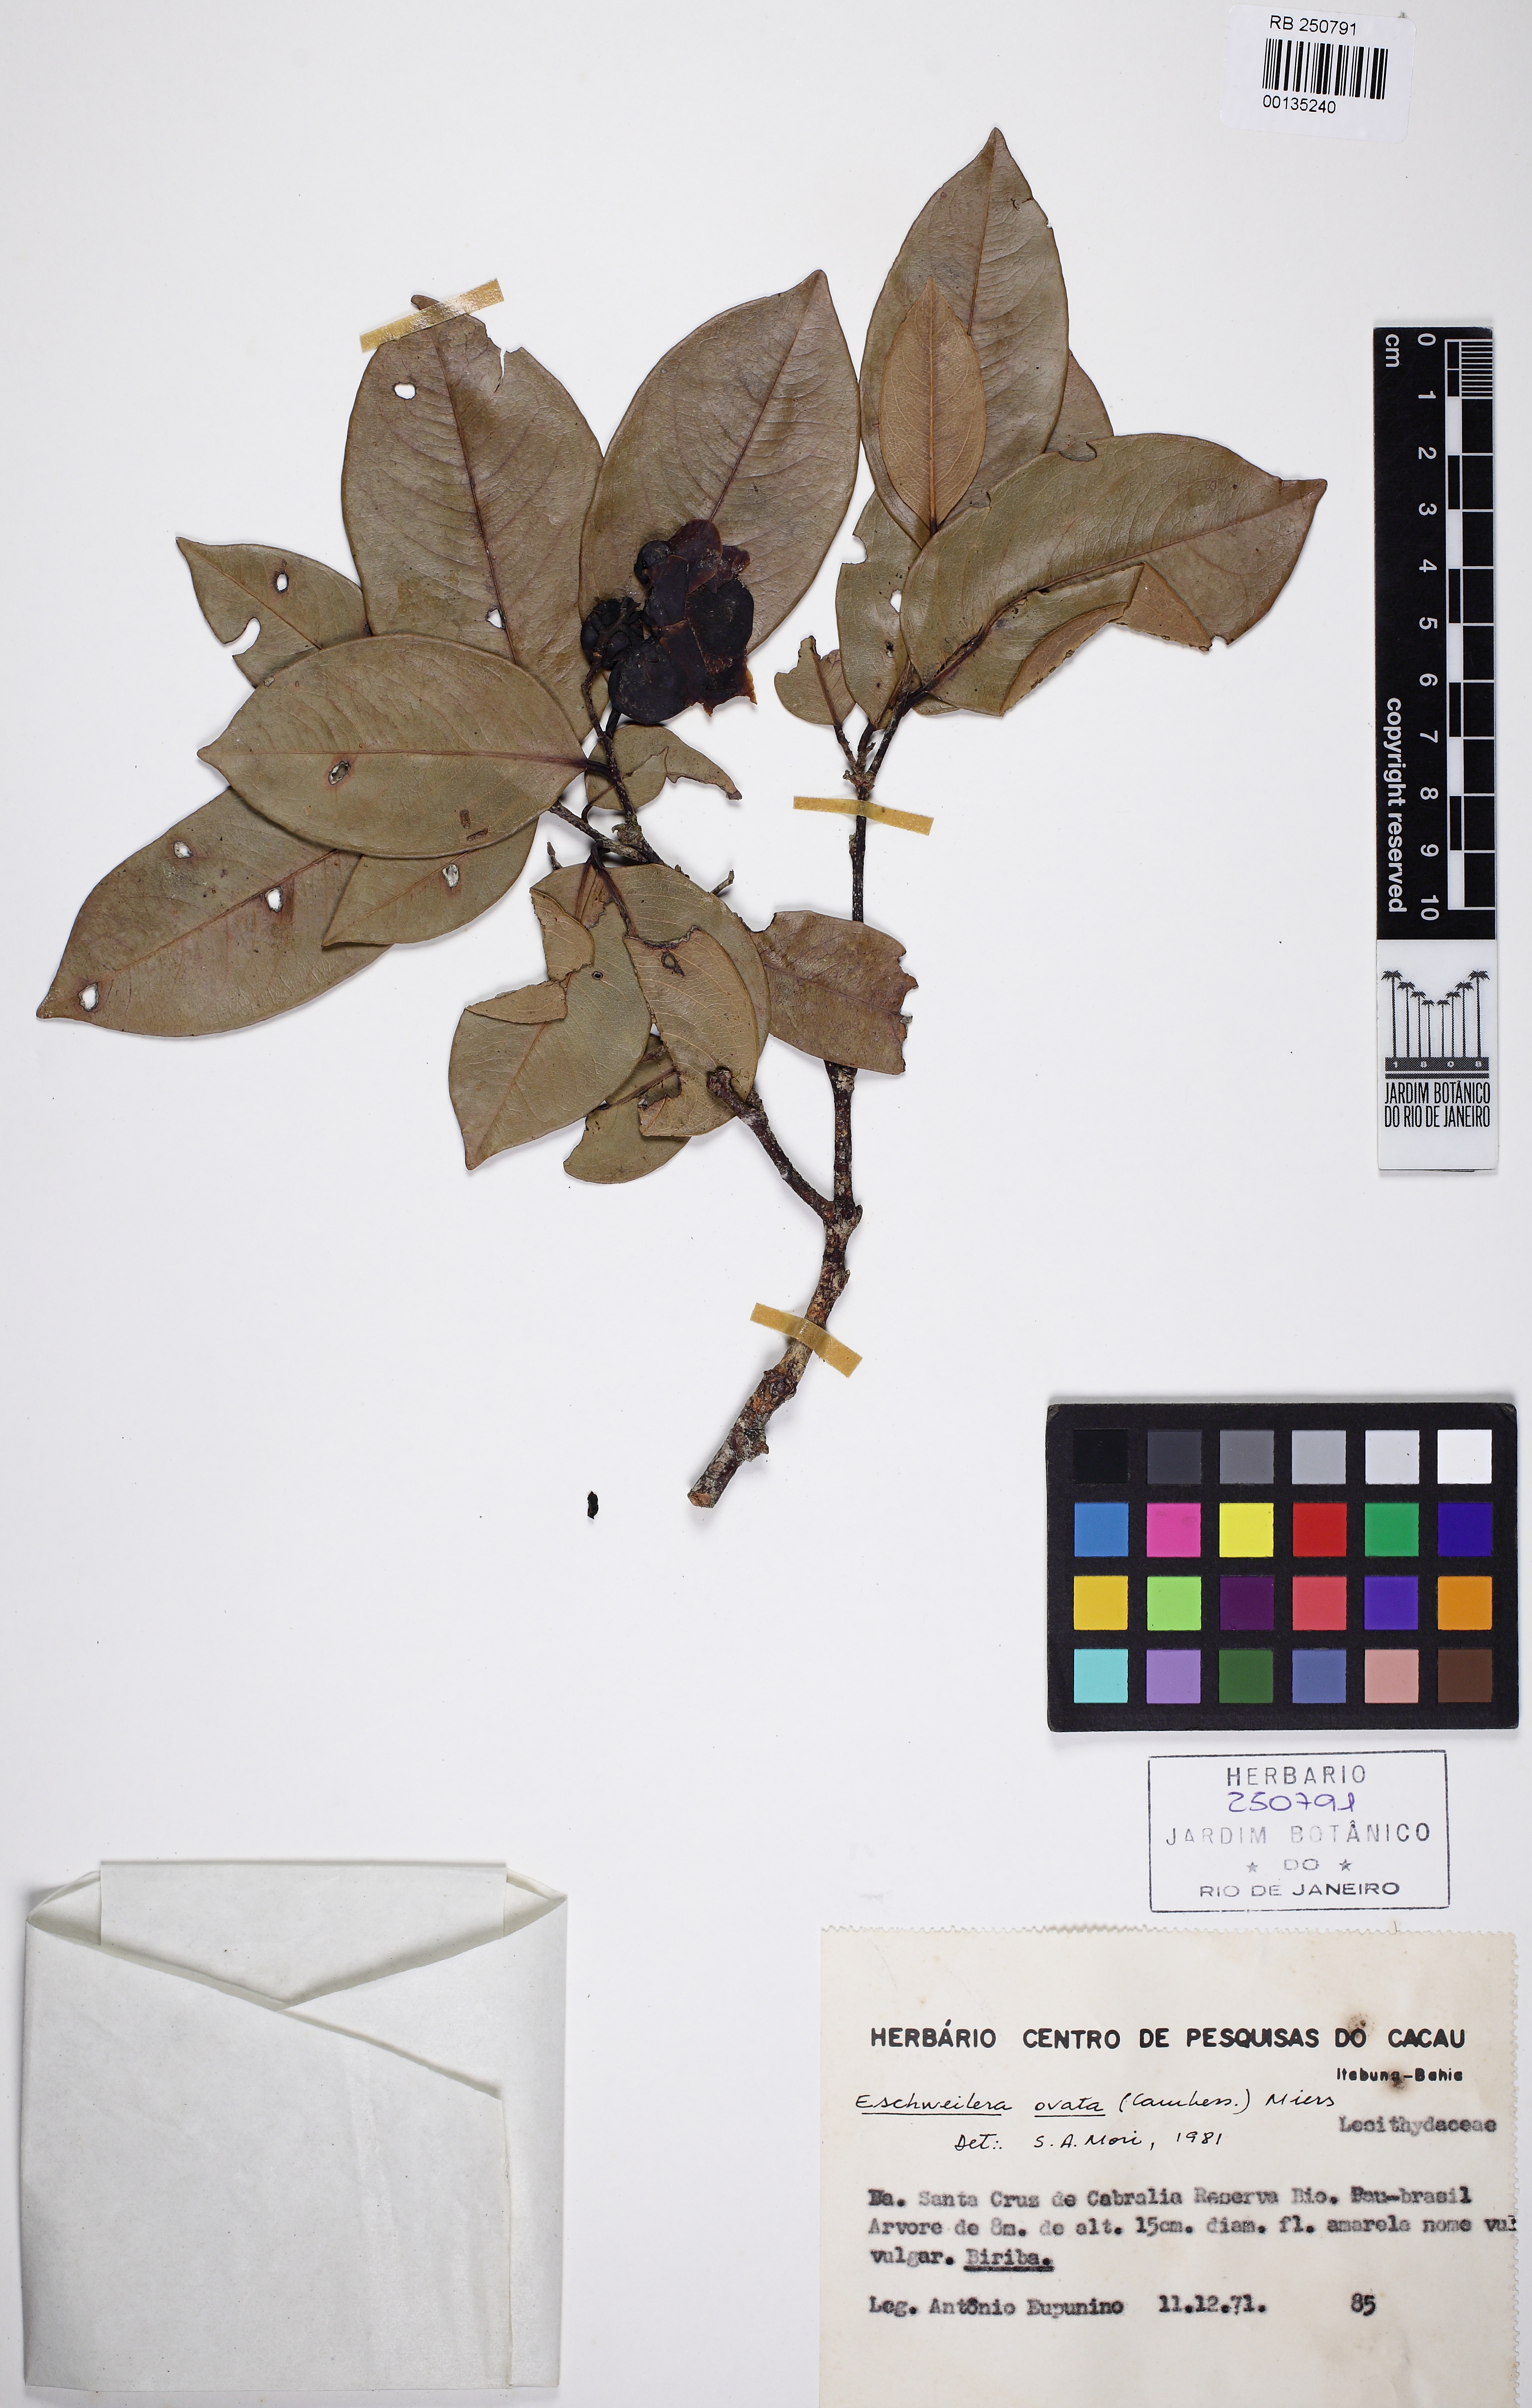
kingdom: Plantae
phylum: Tracheophyta
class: Magnoliopsida
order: Ericales
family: Lecythidaceae
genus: Eschweilera
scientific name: Eschweilera ovata
